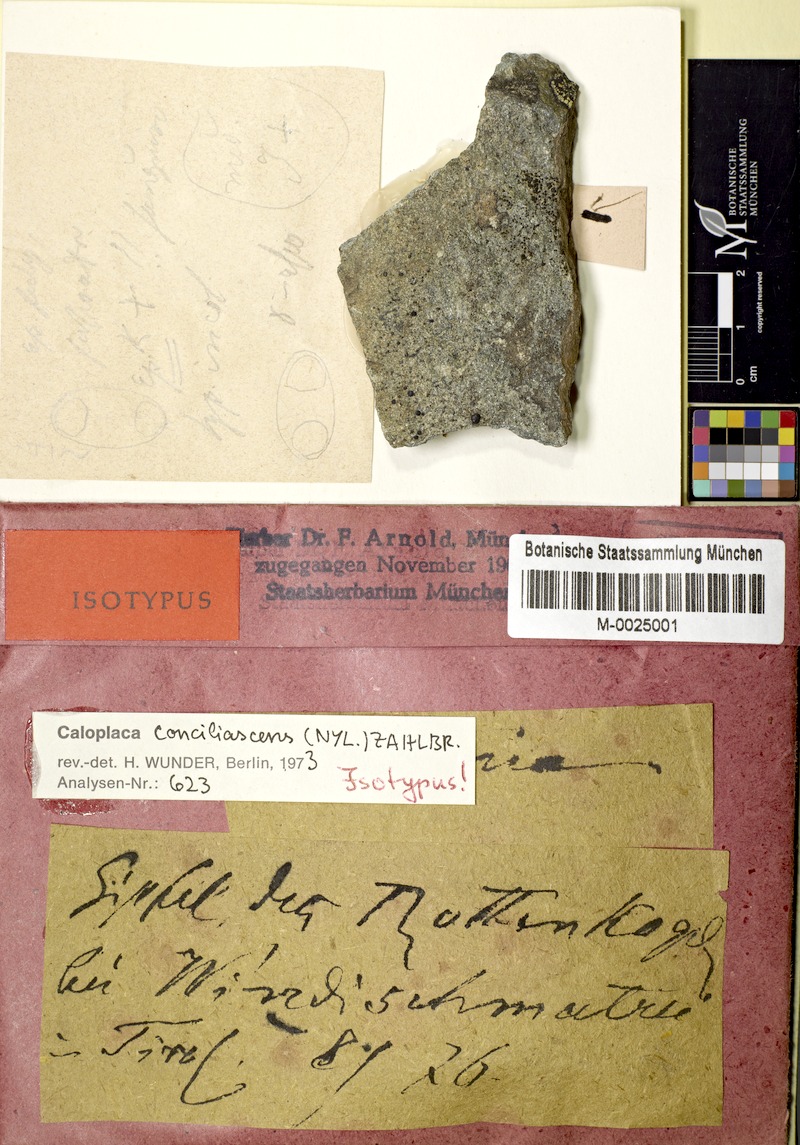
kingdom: Fungi
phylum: Ascomycota
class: Lecanoromycetes
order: Teloschistales
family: Teloschistaceae
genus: Caloplaca
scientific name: Caloplaca conciliascens
